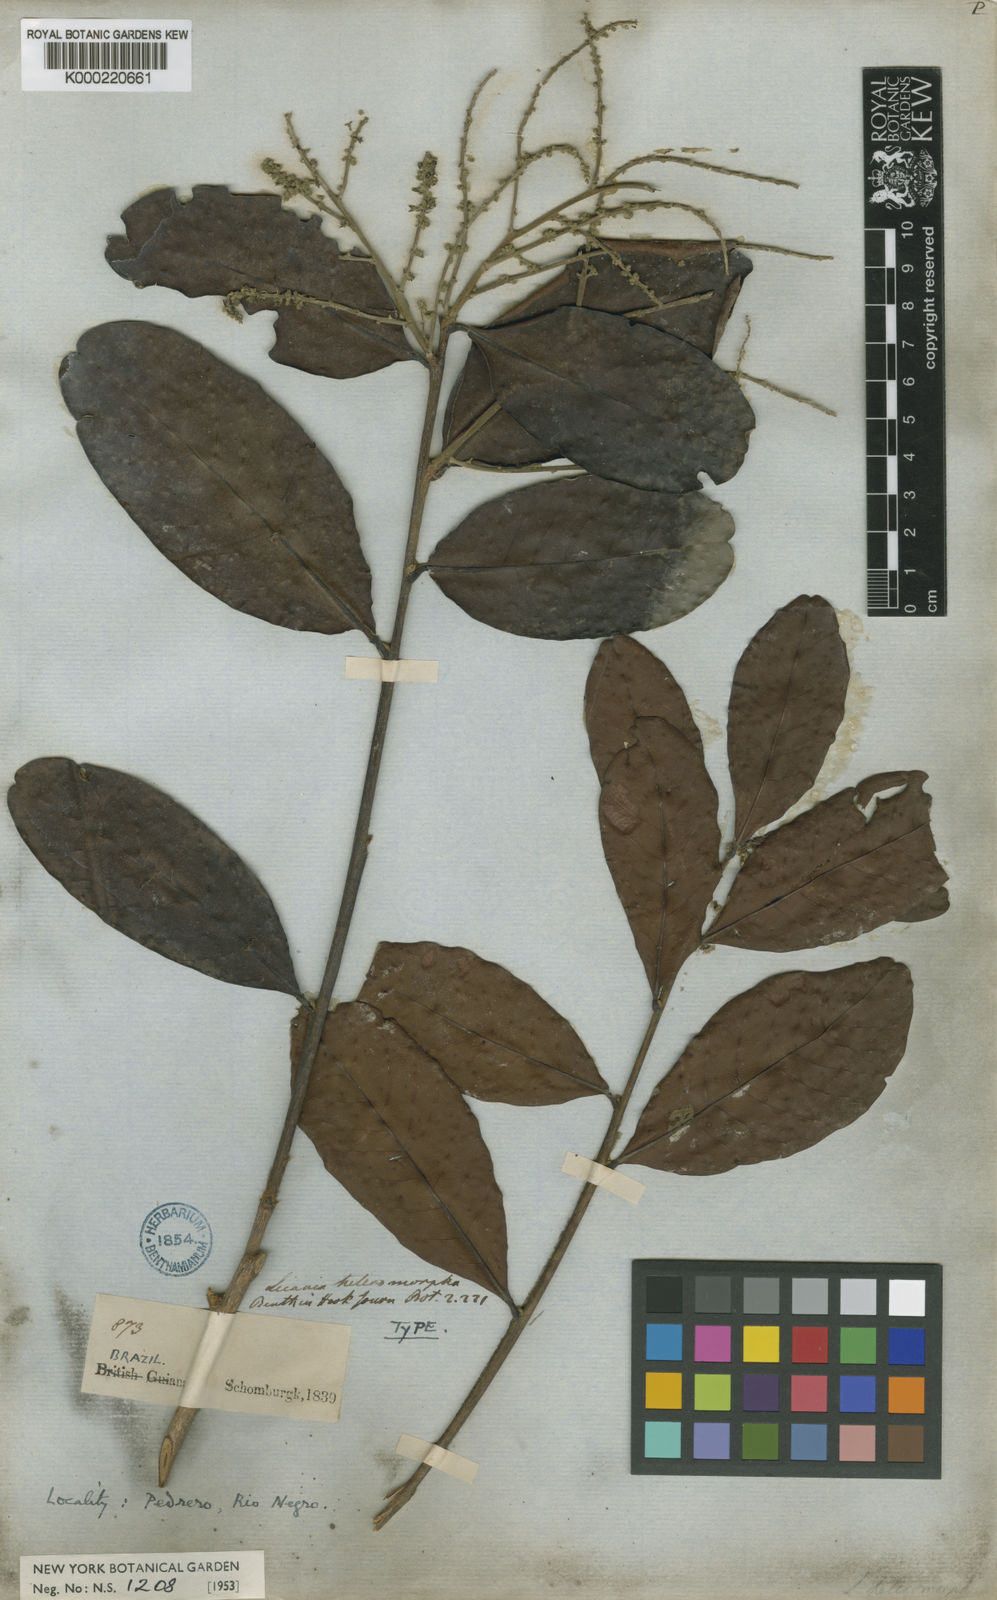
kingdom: Plantae
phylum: Tracheophyta
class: Magnoliopsida
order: Malpighiales
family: Chrysobalanaceae
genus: Hymenopus
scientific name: Hymenopus heteromorphus
